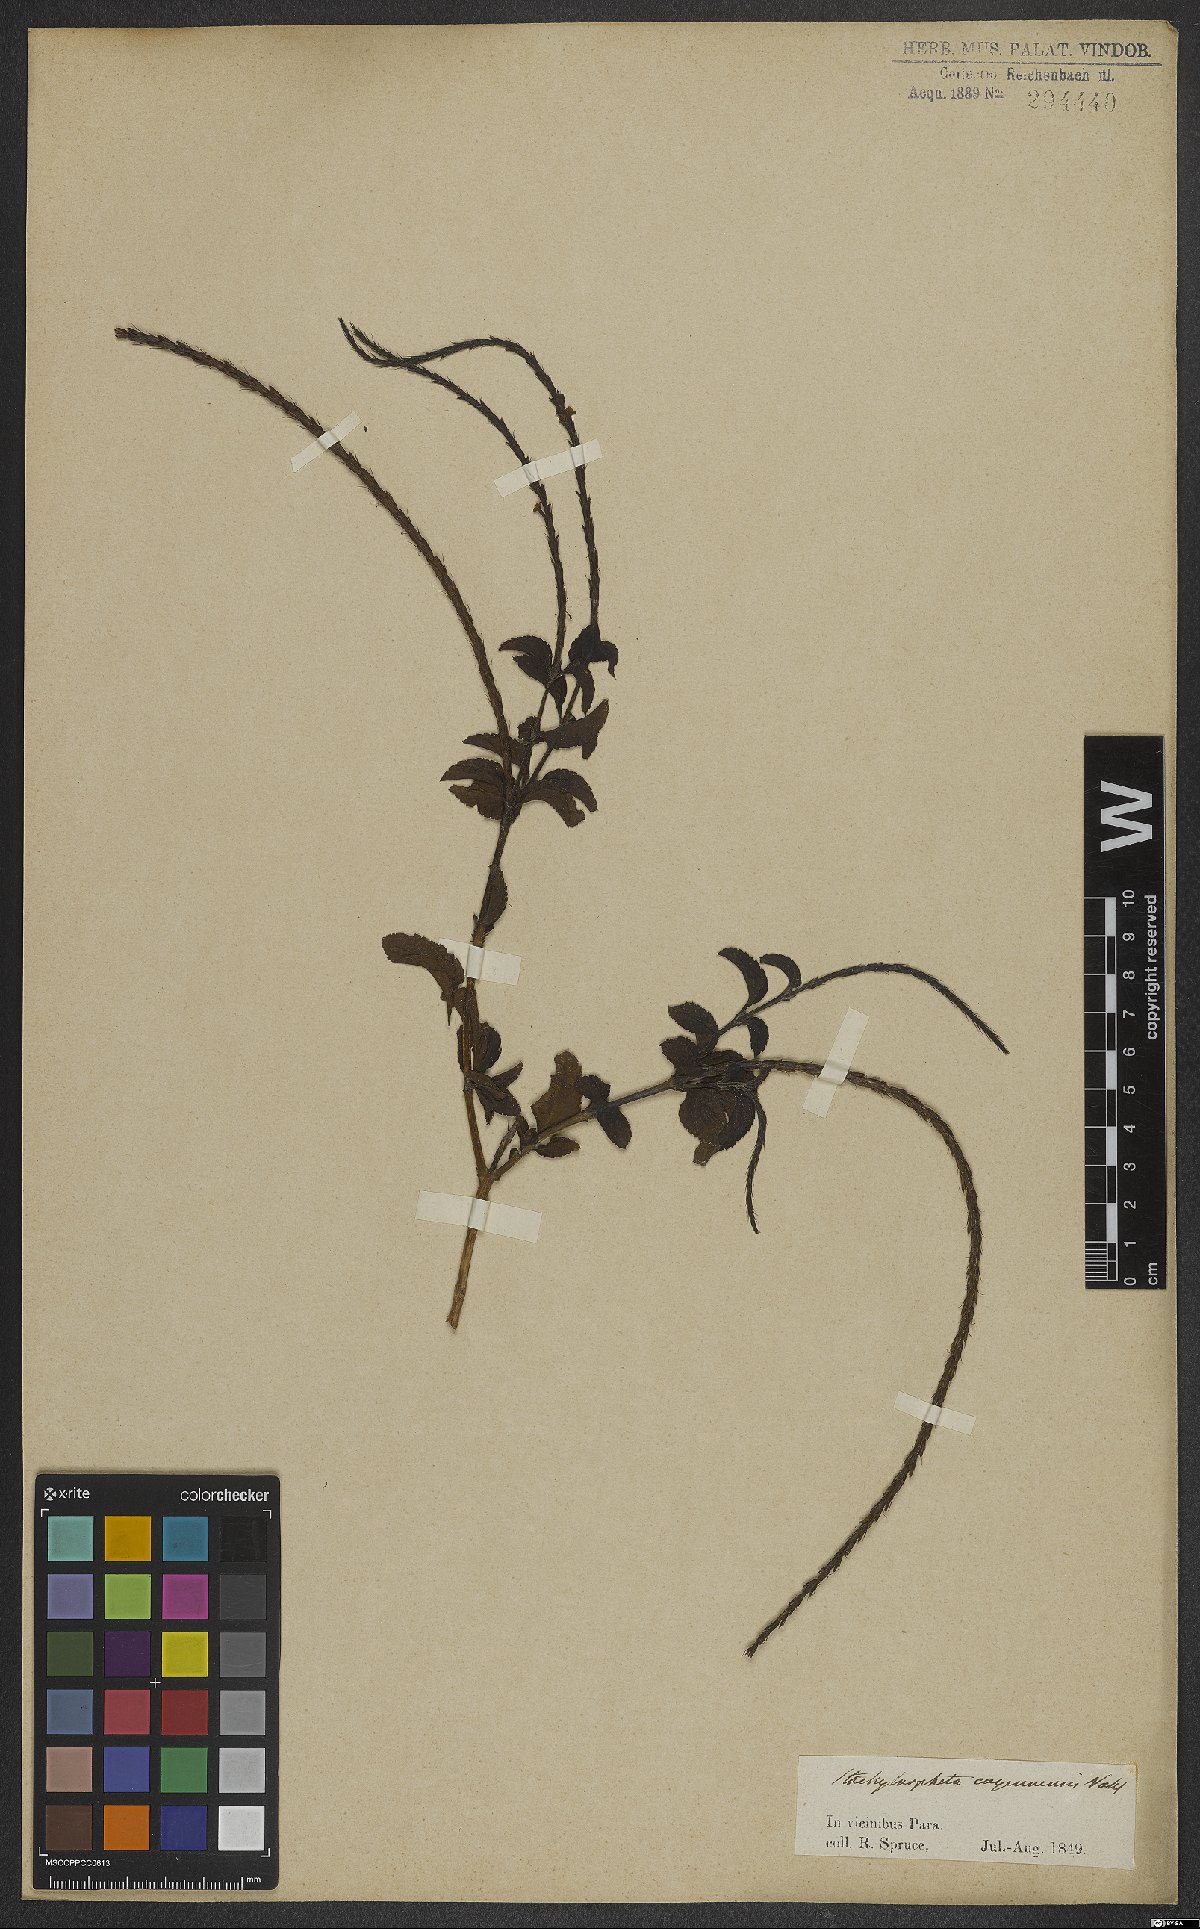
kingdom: Plantae
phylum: Tracheophyta
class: Magnoliopsida
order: Lamiales
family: Verbenaceae
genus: Stachytarpheta
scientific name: Stachytarpheta cayennensis
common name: Cayenne porterweed
